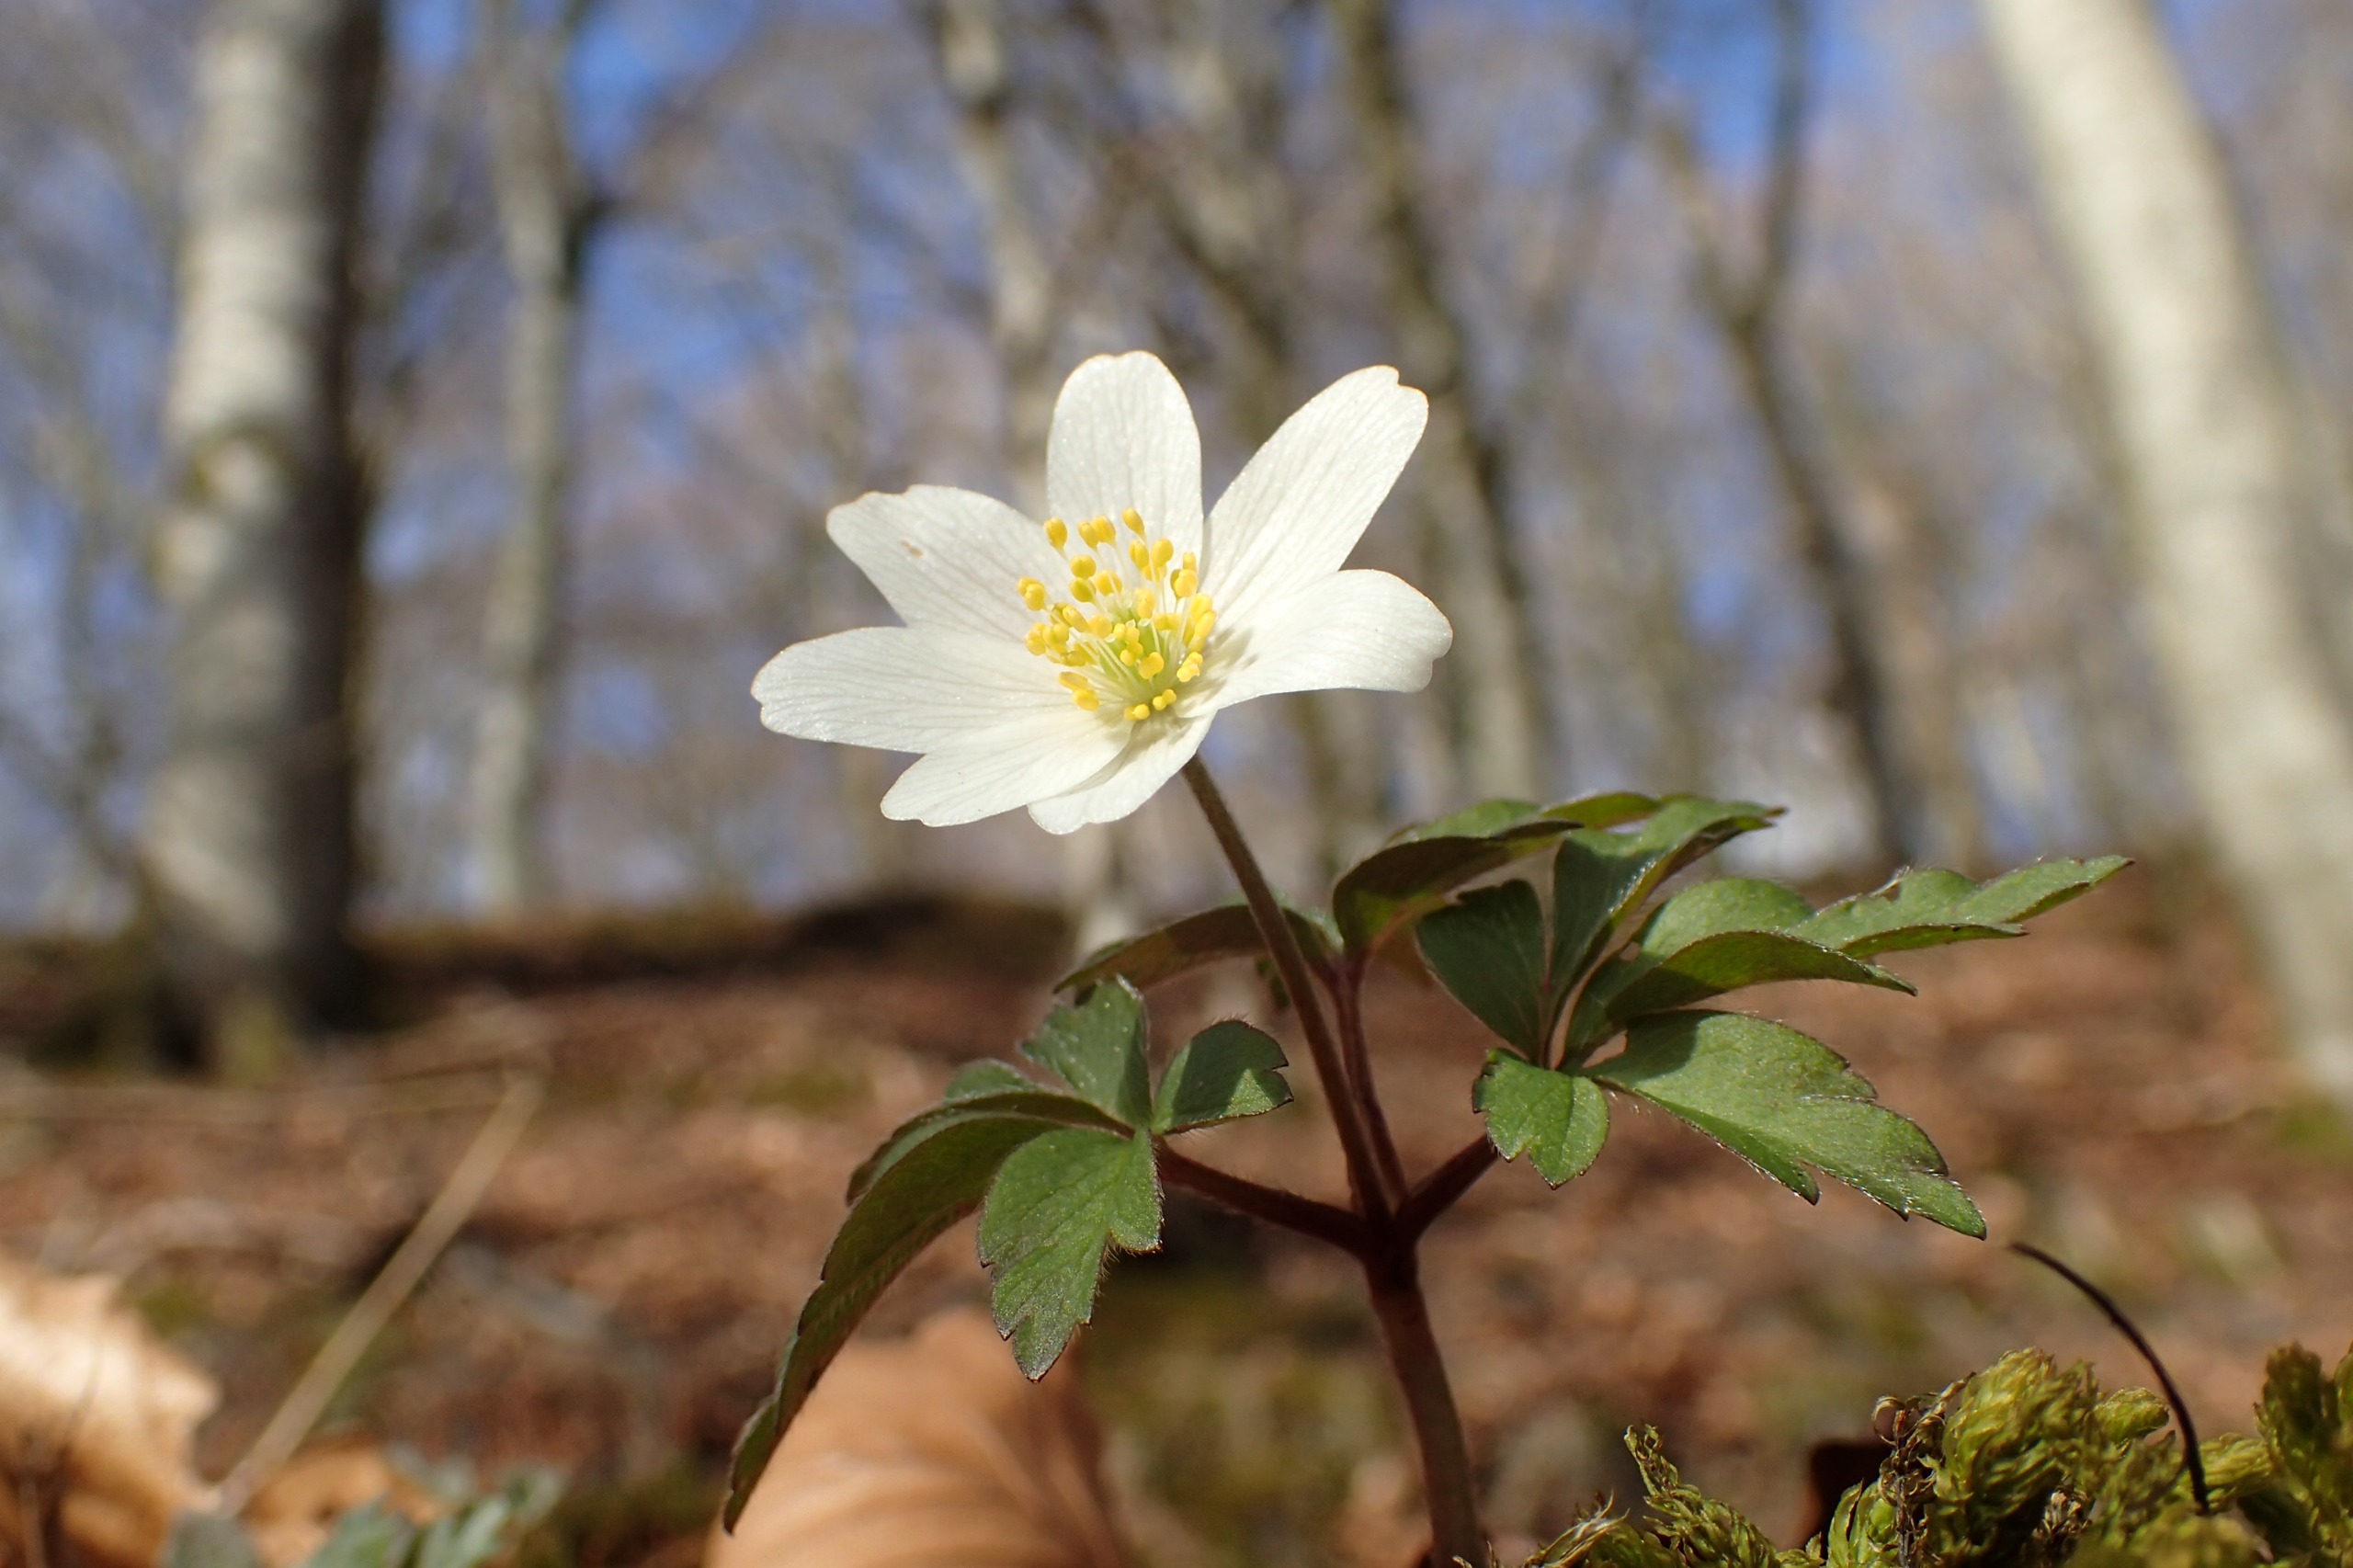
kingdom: Plantae
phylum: Tracheophyta
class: Magnoliopsida
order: Ranunculales
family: Ranunculaceae
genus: Anemone
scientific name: Anemone nemorosa
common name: Hvid anemone
